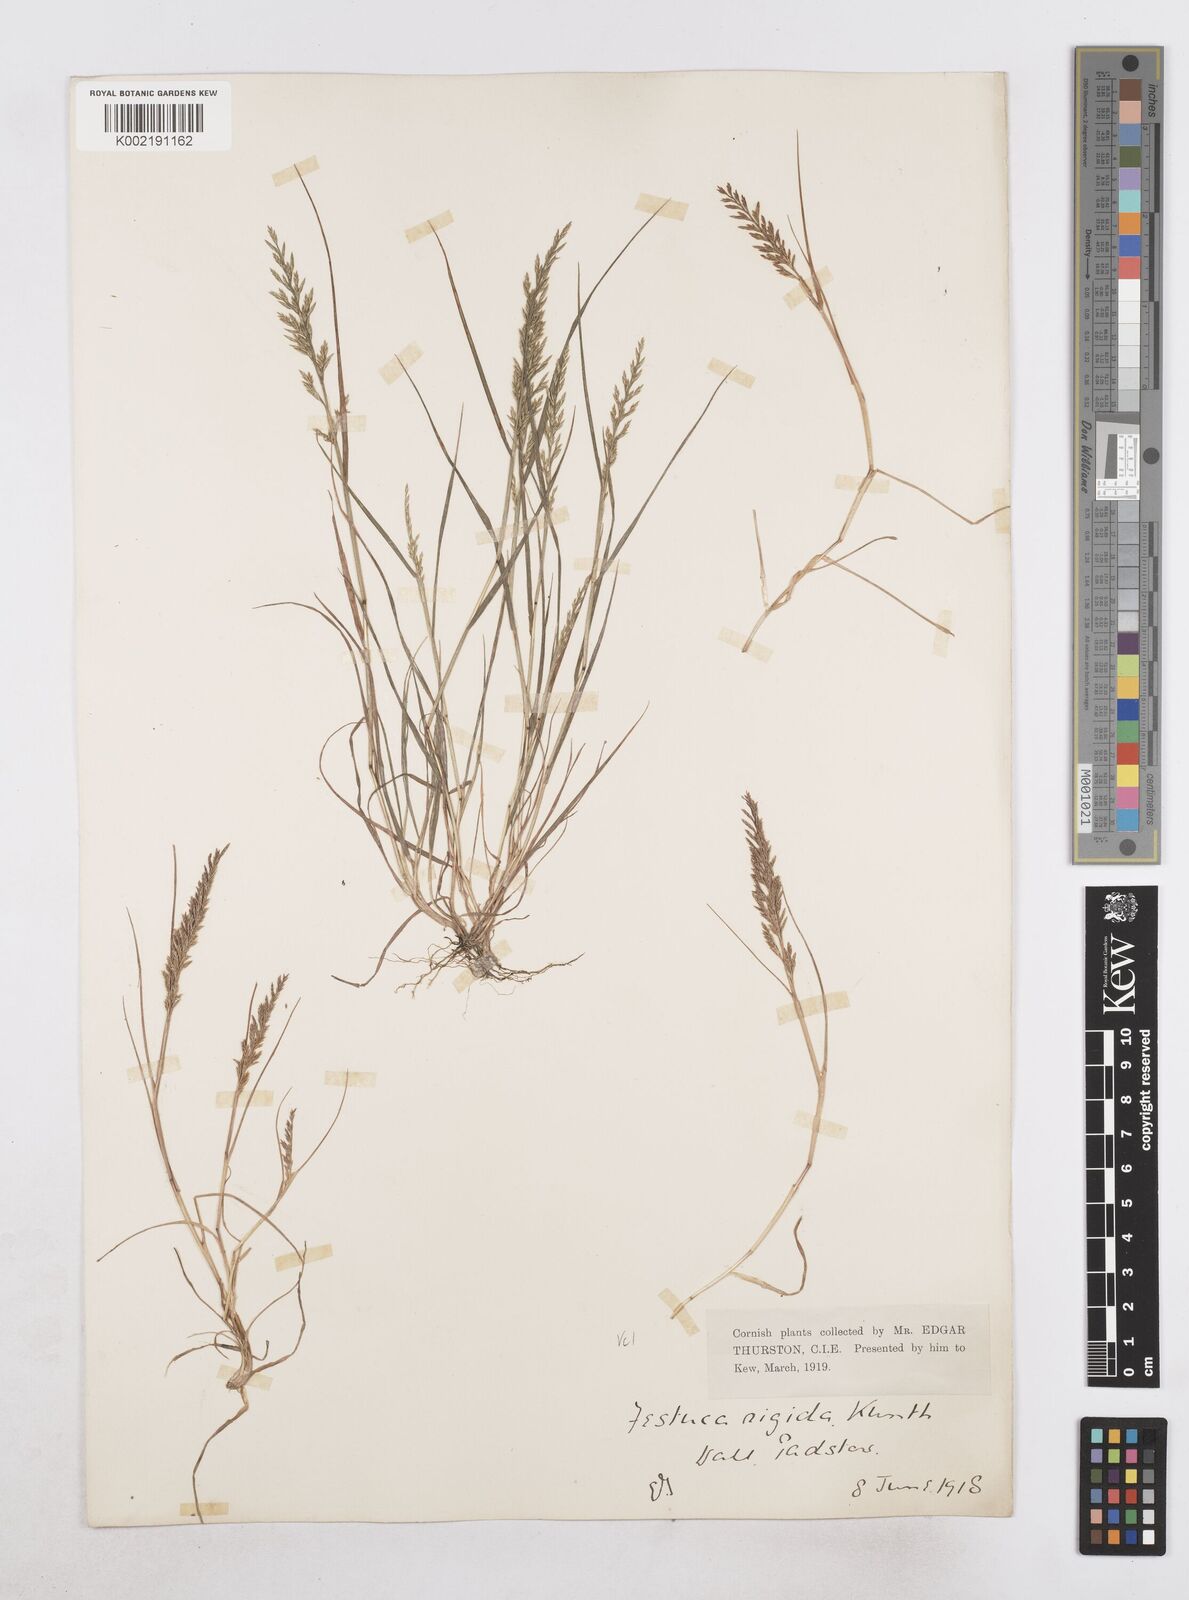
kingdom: Plantae
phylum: Tracheophyta
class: Liliopsida
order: Poales
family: Poaceae
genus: Catapodium
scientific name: Catapodium rigidum
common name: Fern-grass
